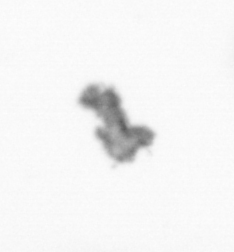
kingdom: Animalia
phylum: Arthropoda
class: Copepoda
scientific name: Copepoda
